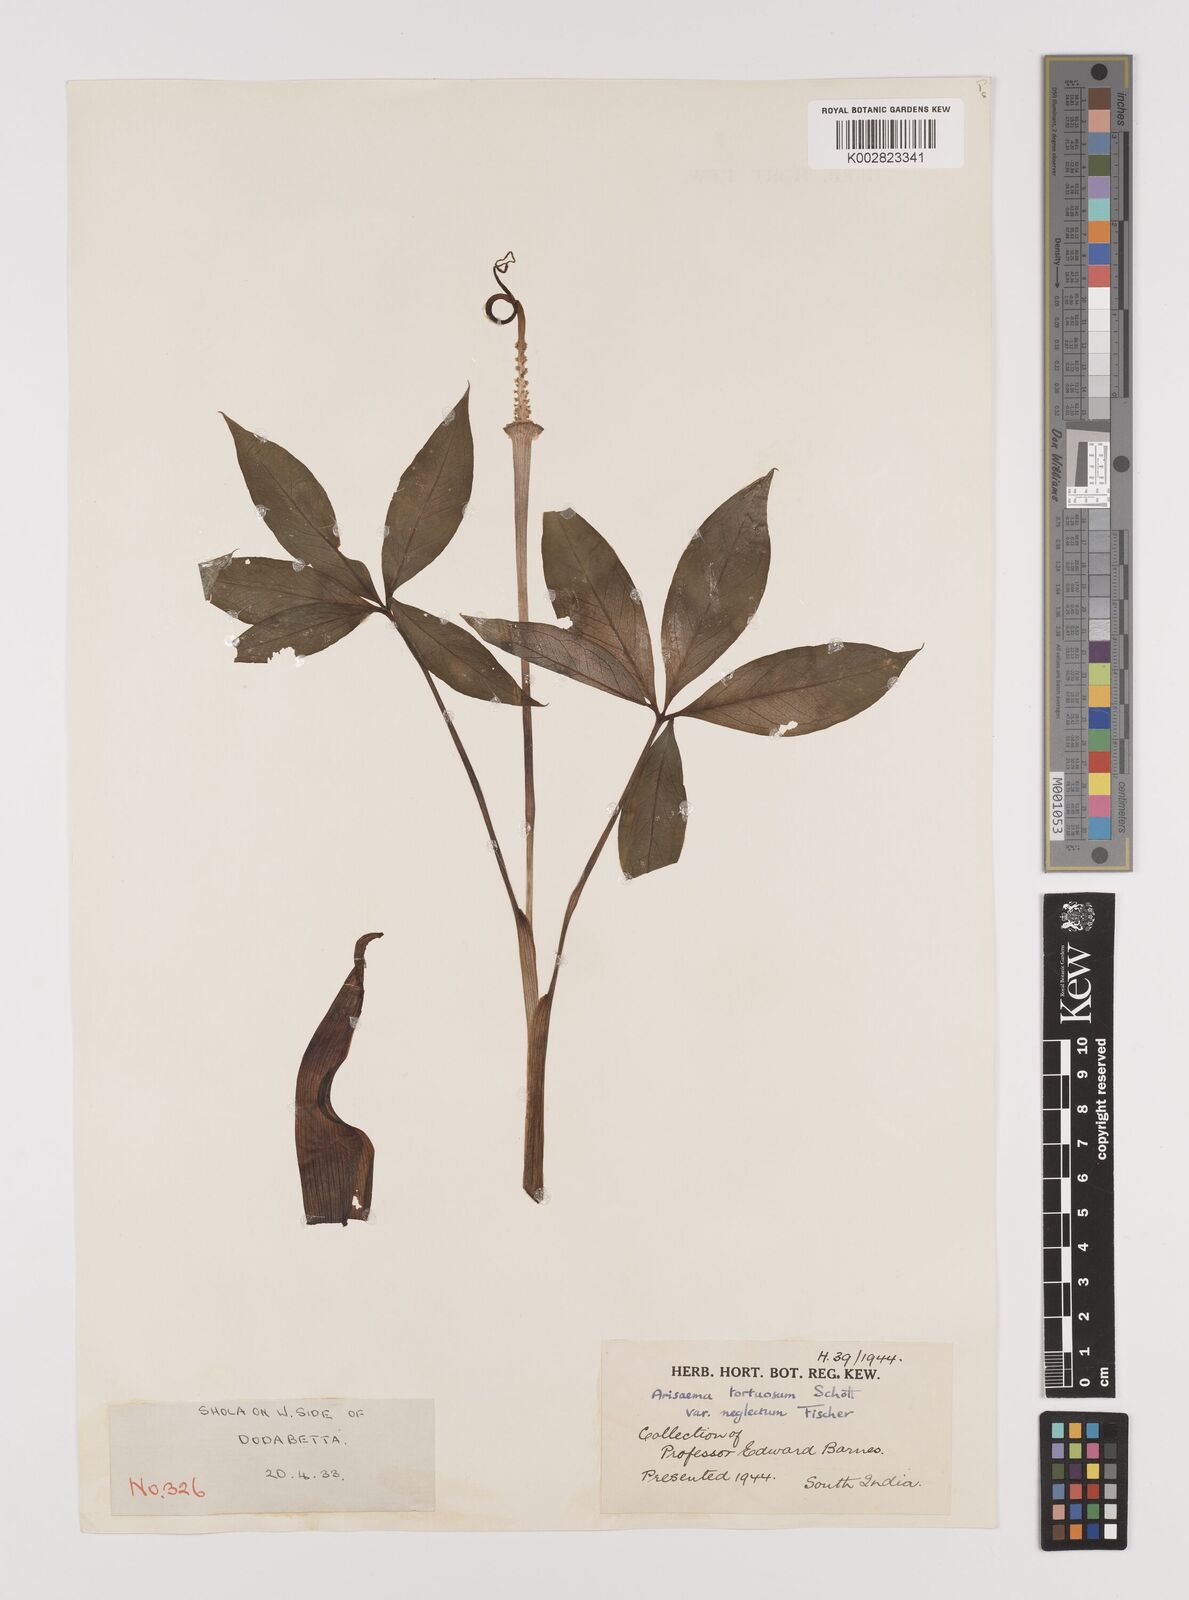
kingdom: Plantae
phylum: Tracheophyta
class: Liliopsida
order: Alismatales
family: Araceae
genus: Arisaema
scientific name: Arisaema tortuosum
